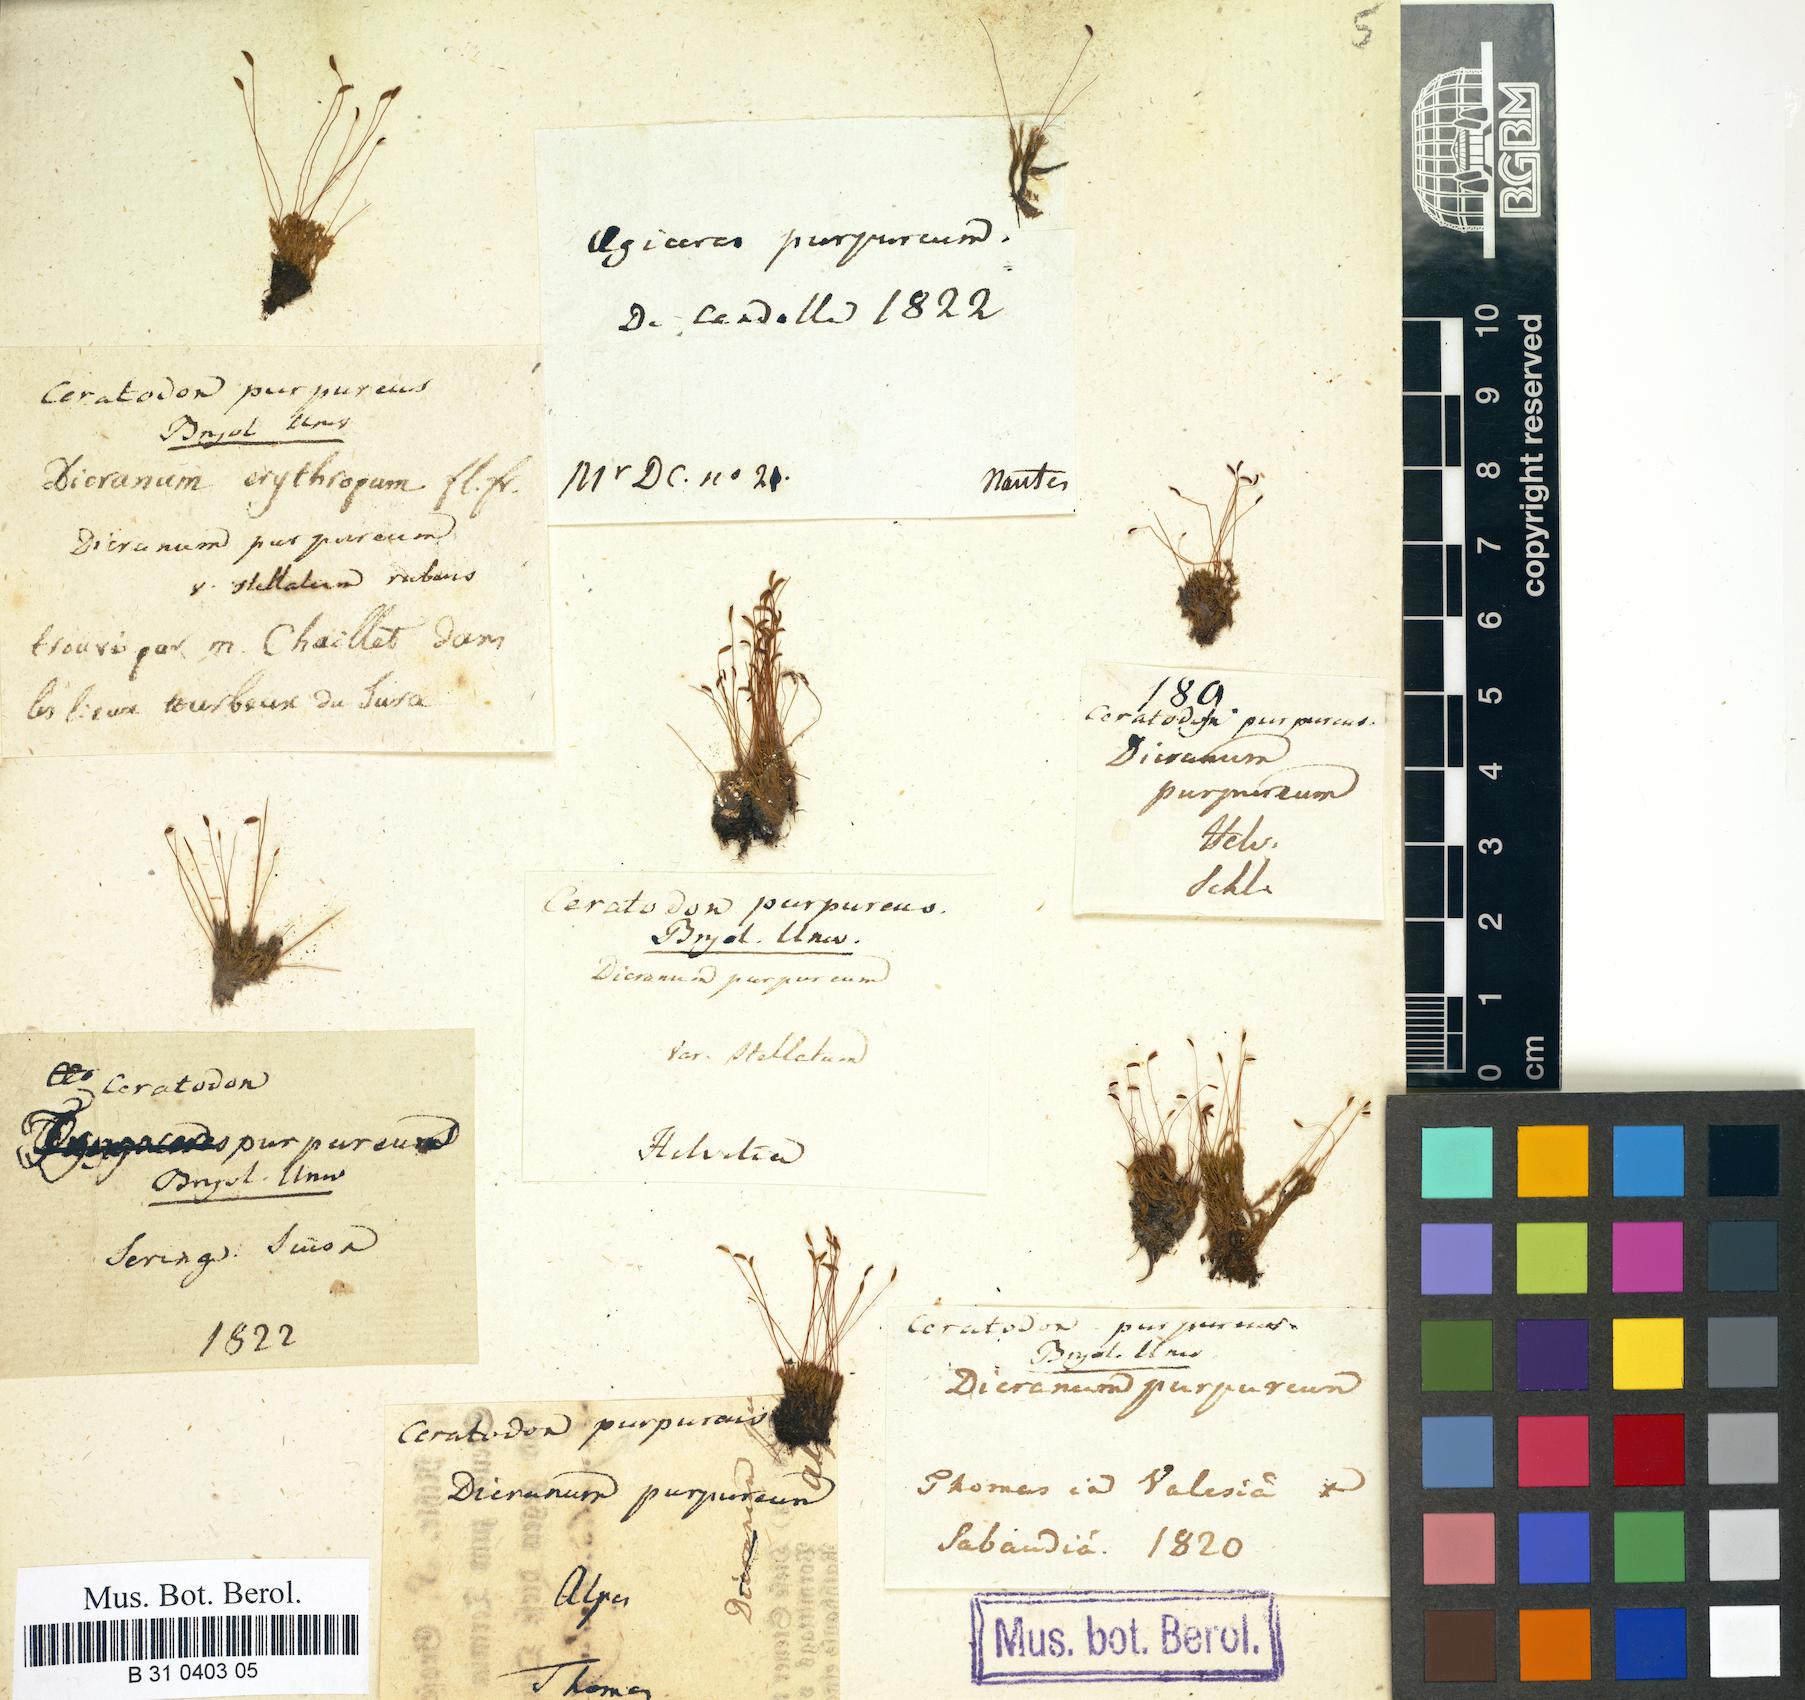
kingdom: Plantae
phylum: Bryophyta
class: Bryopsida
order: Dicranales
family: Ditrichaceae
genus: Ceratodon
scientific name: Ceratodon purpureus
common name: Redshank
